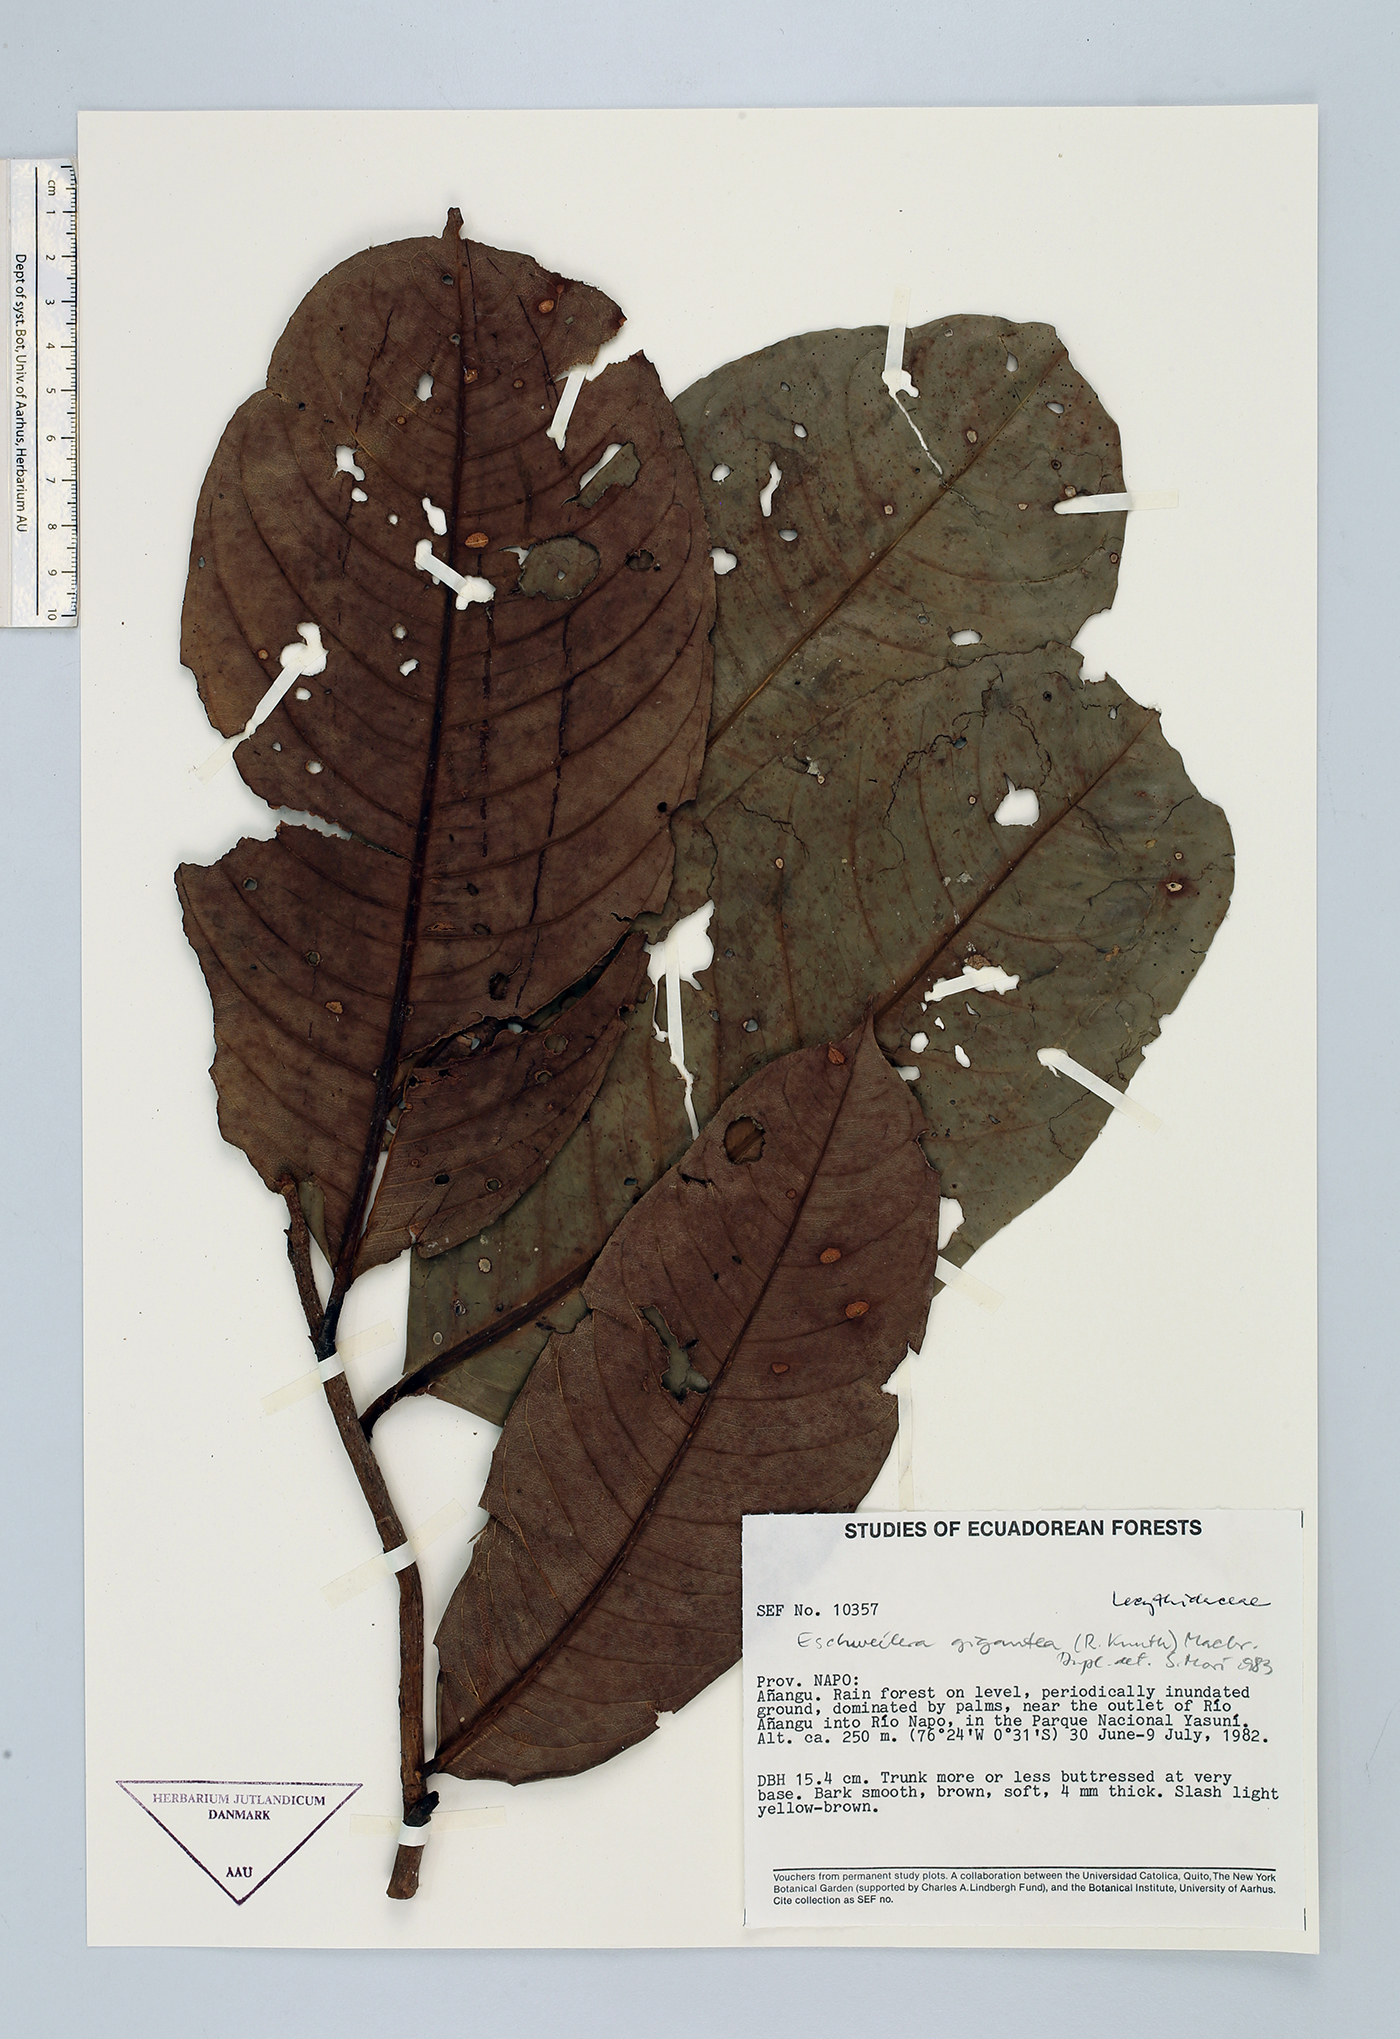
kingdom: Plantae
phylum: Tracheophyta
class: Magnoliopsida
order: Ericales
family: Lecythidaceae
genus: Eschweilera
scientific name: Eschweilera gigantea
